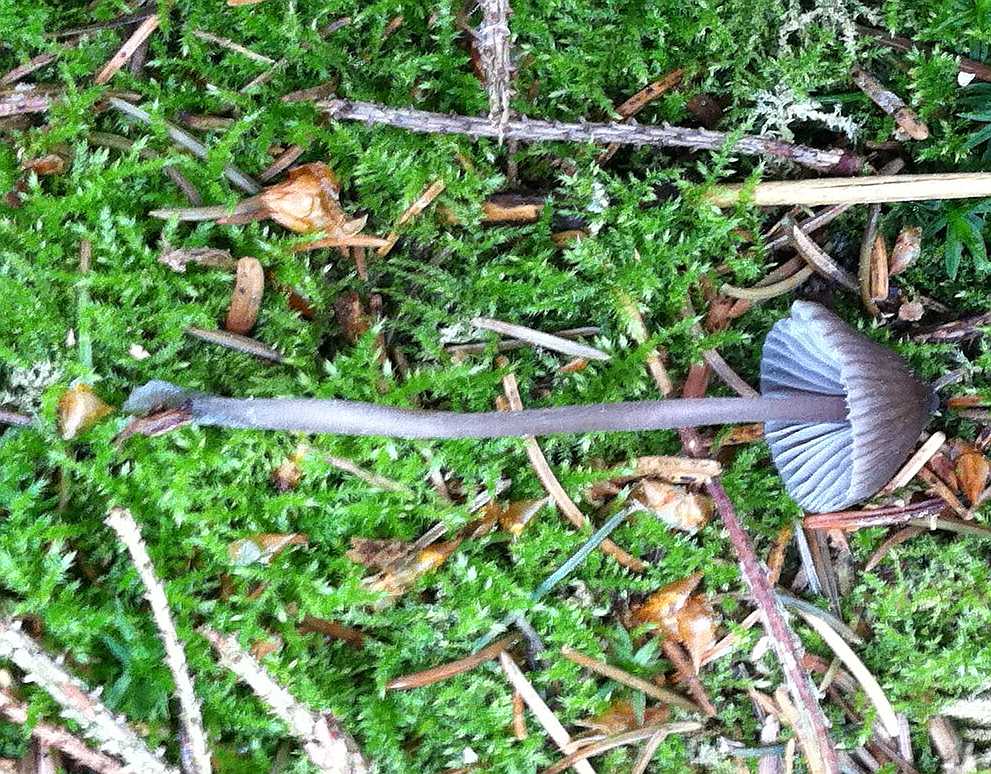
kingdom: Fungi
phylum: Basidiomycota
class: Agaricomycetes
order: Agaricales
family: Mycenaceae
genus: Mycena
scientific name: Mycena silvae-nigrae
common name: tidlig huesvamp
